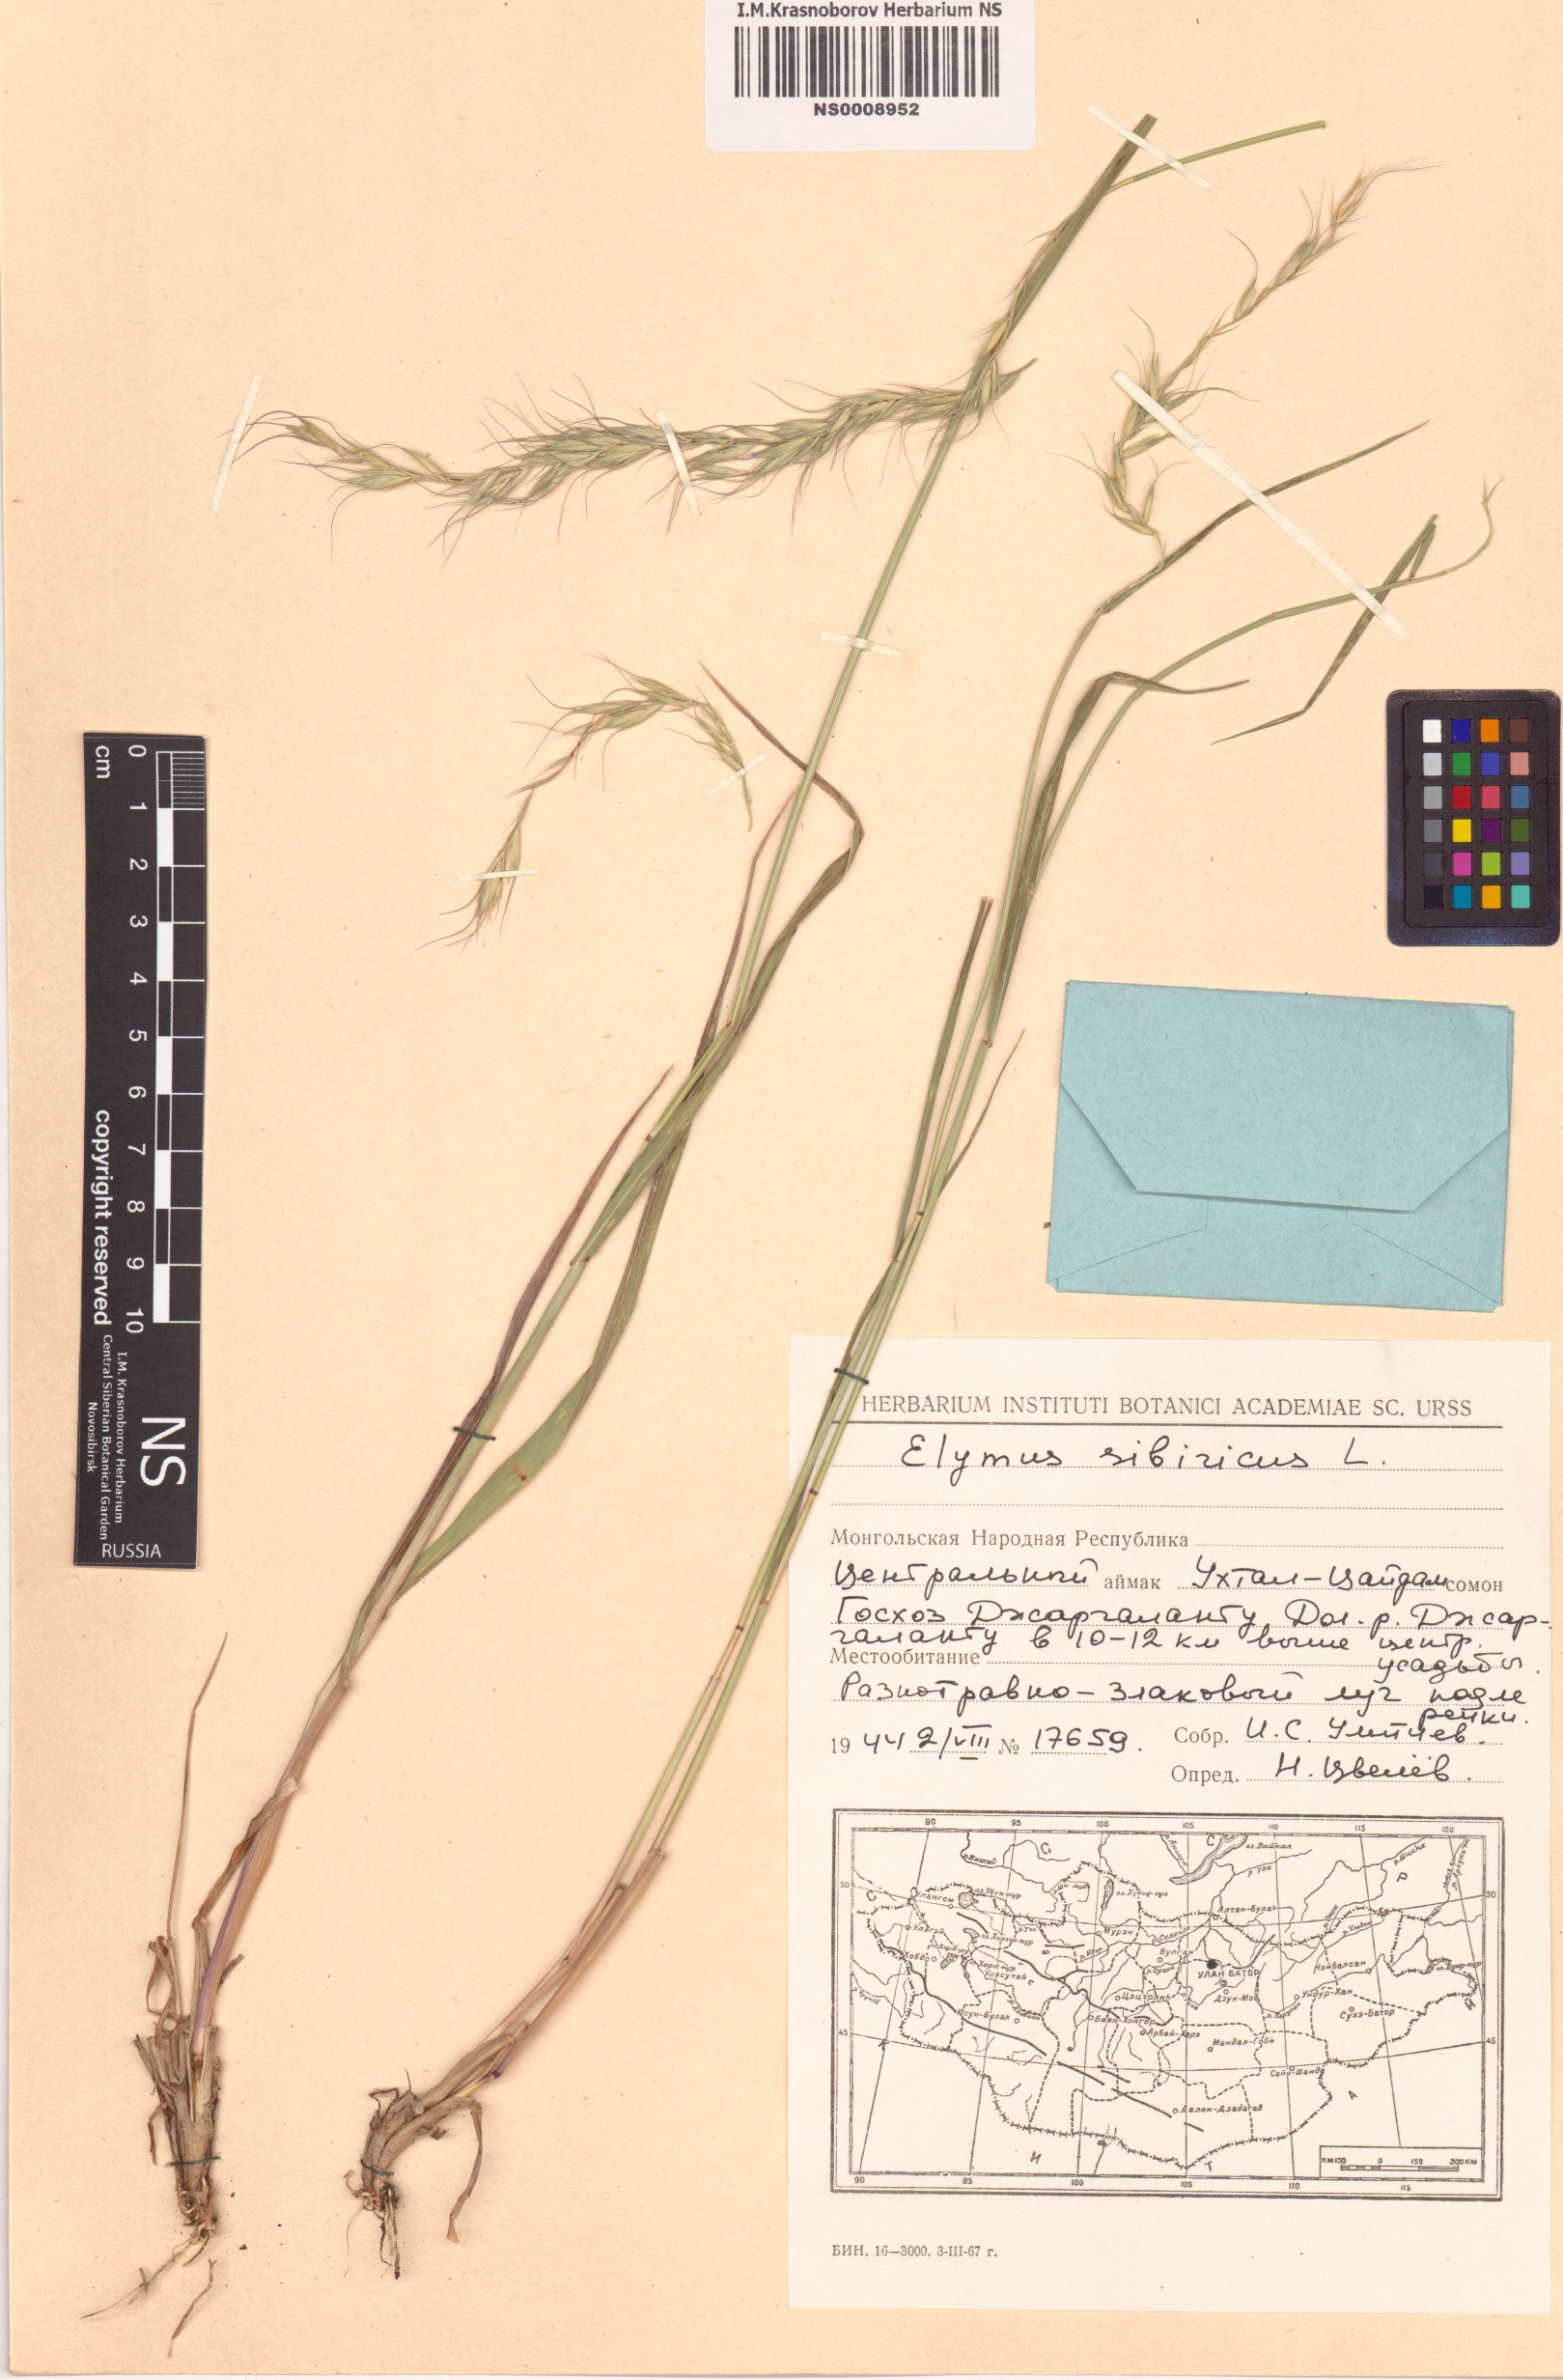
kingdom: Plantae
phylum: Tracheophyta
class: Liliopsida
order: Poales
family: Poaceae
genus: Elymus
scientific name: Elymus sibiricus
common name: Siberian wildrye
